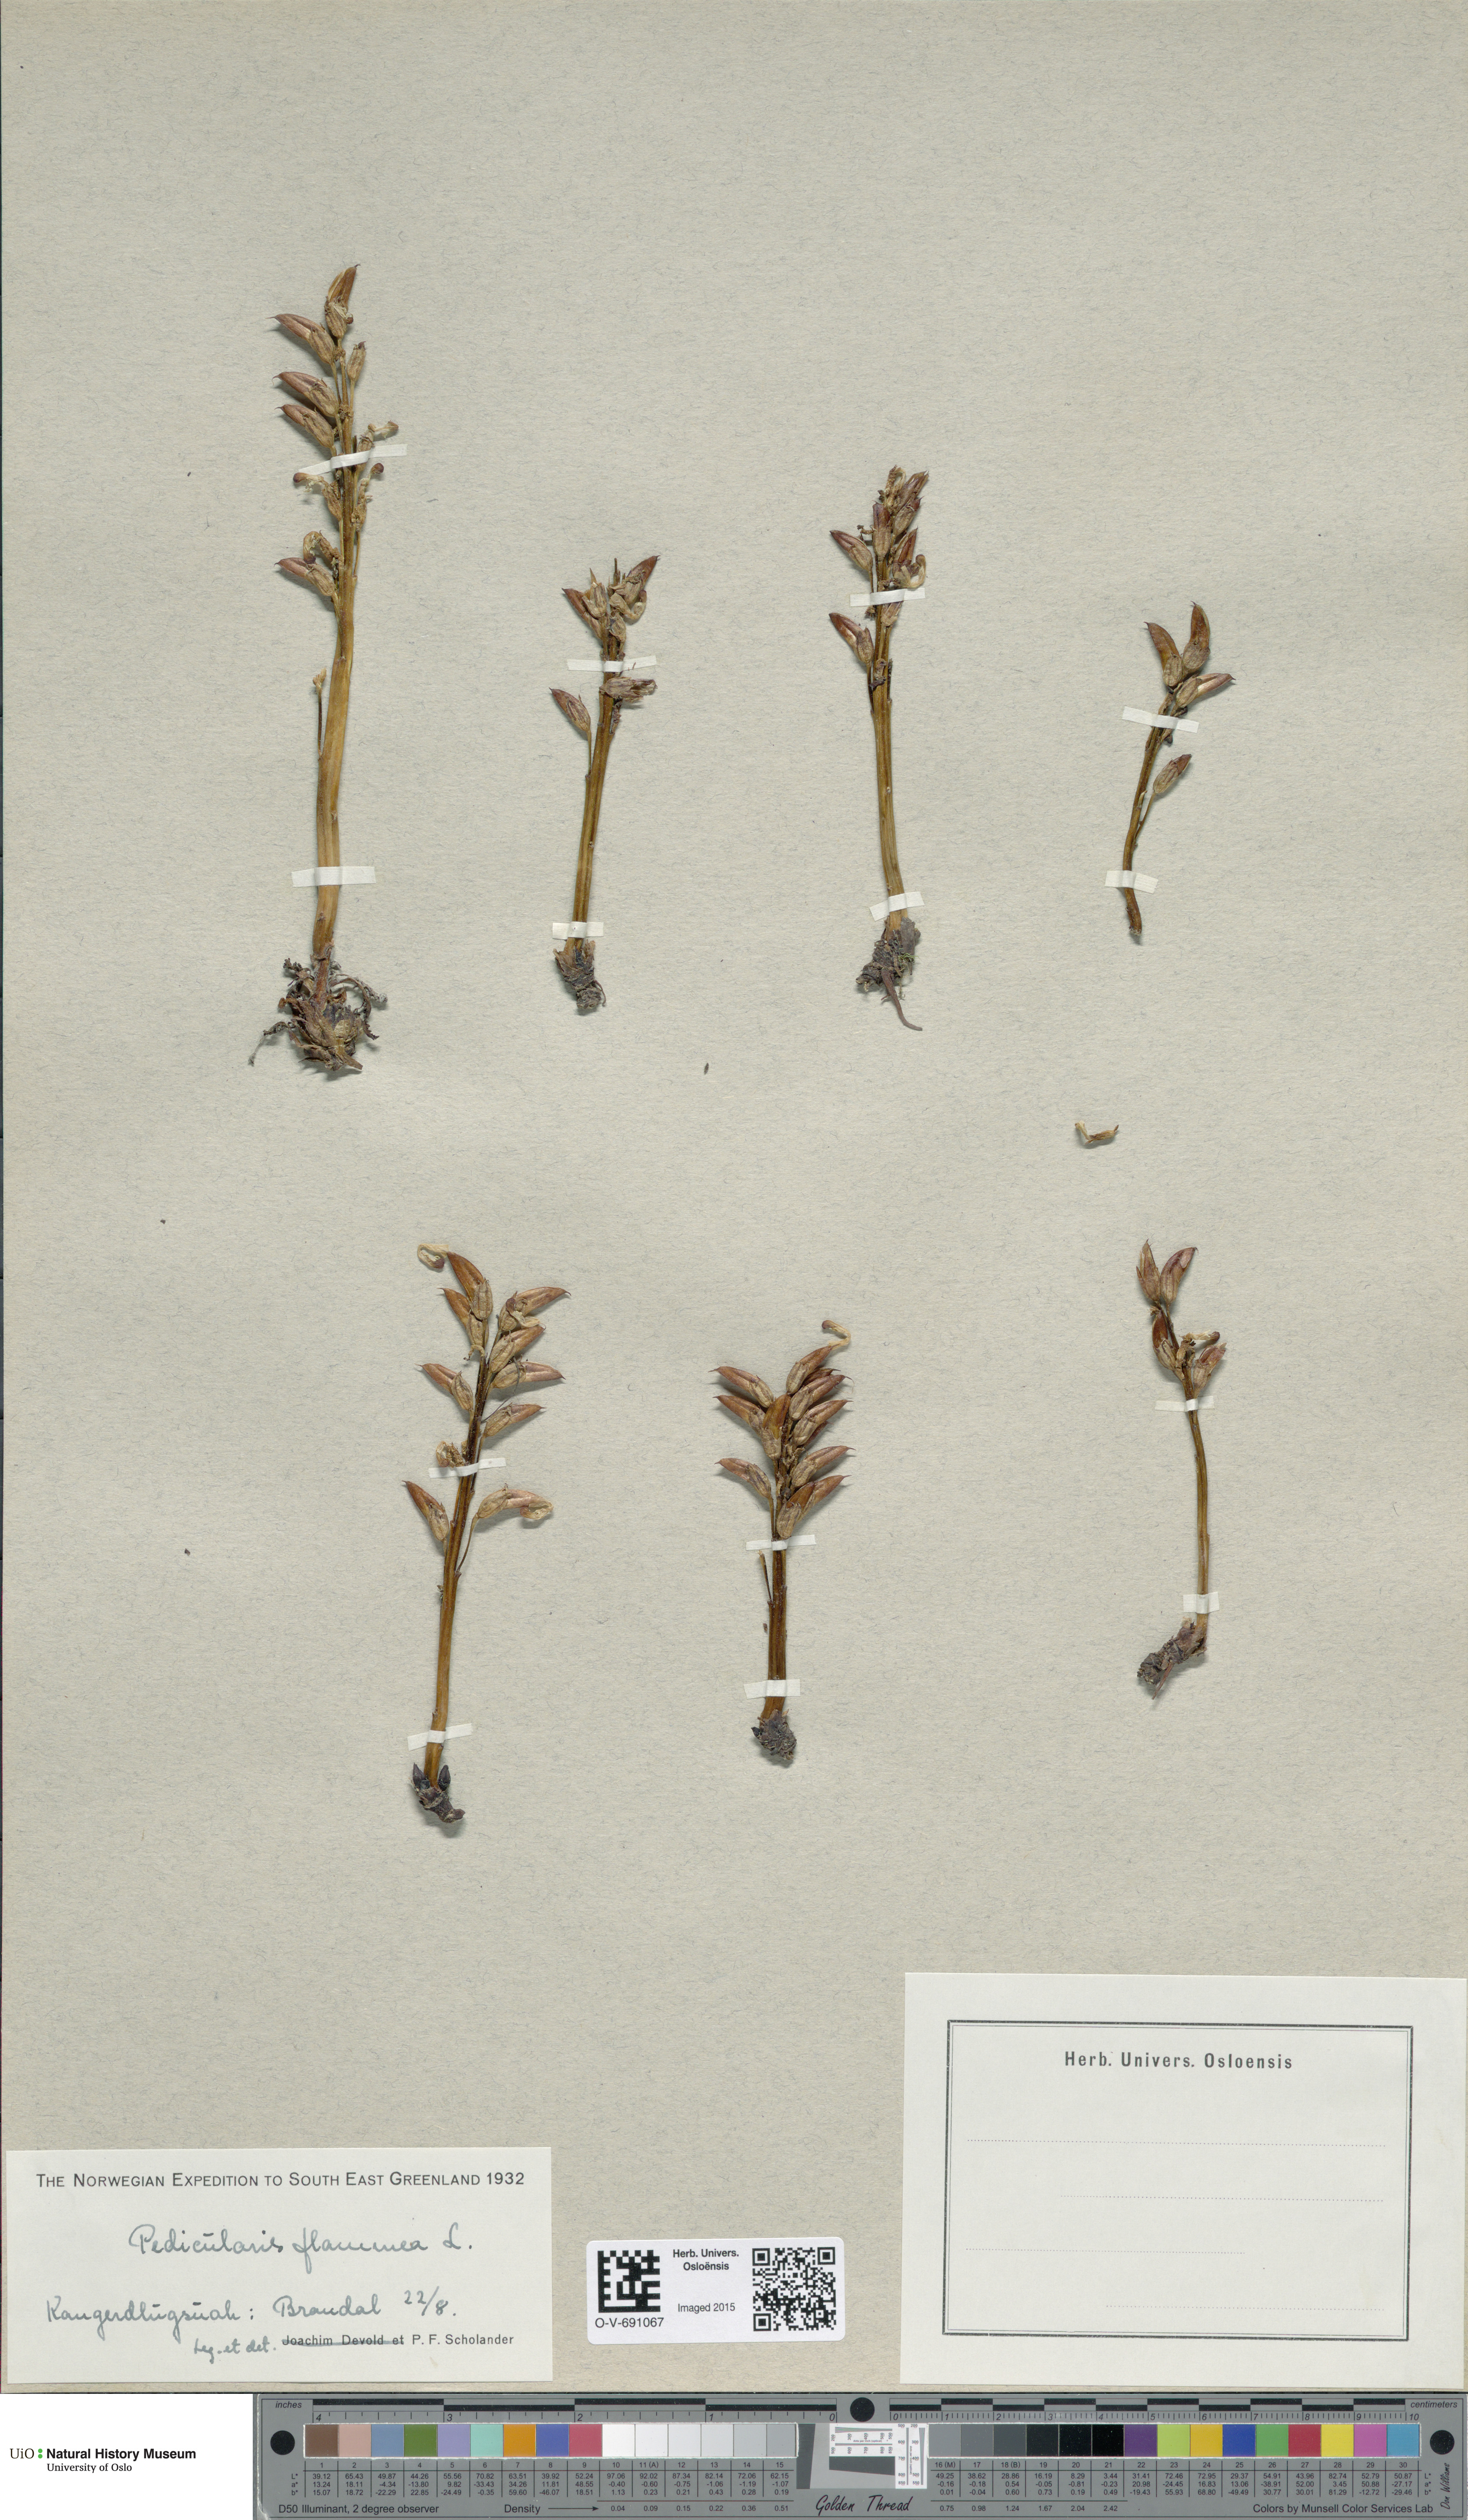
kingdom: Plantae
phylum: Tracheophyta
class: Magnoliopsida
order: Lamiales
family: Orobanchaceae
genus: Pedicularis
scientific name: Pedicularis flammea
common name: Flame-coloured lousewort
